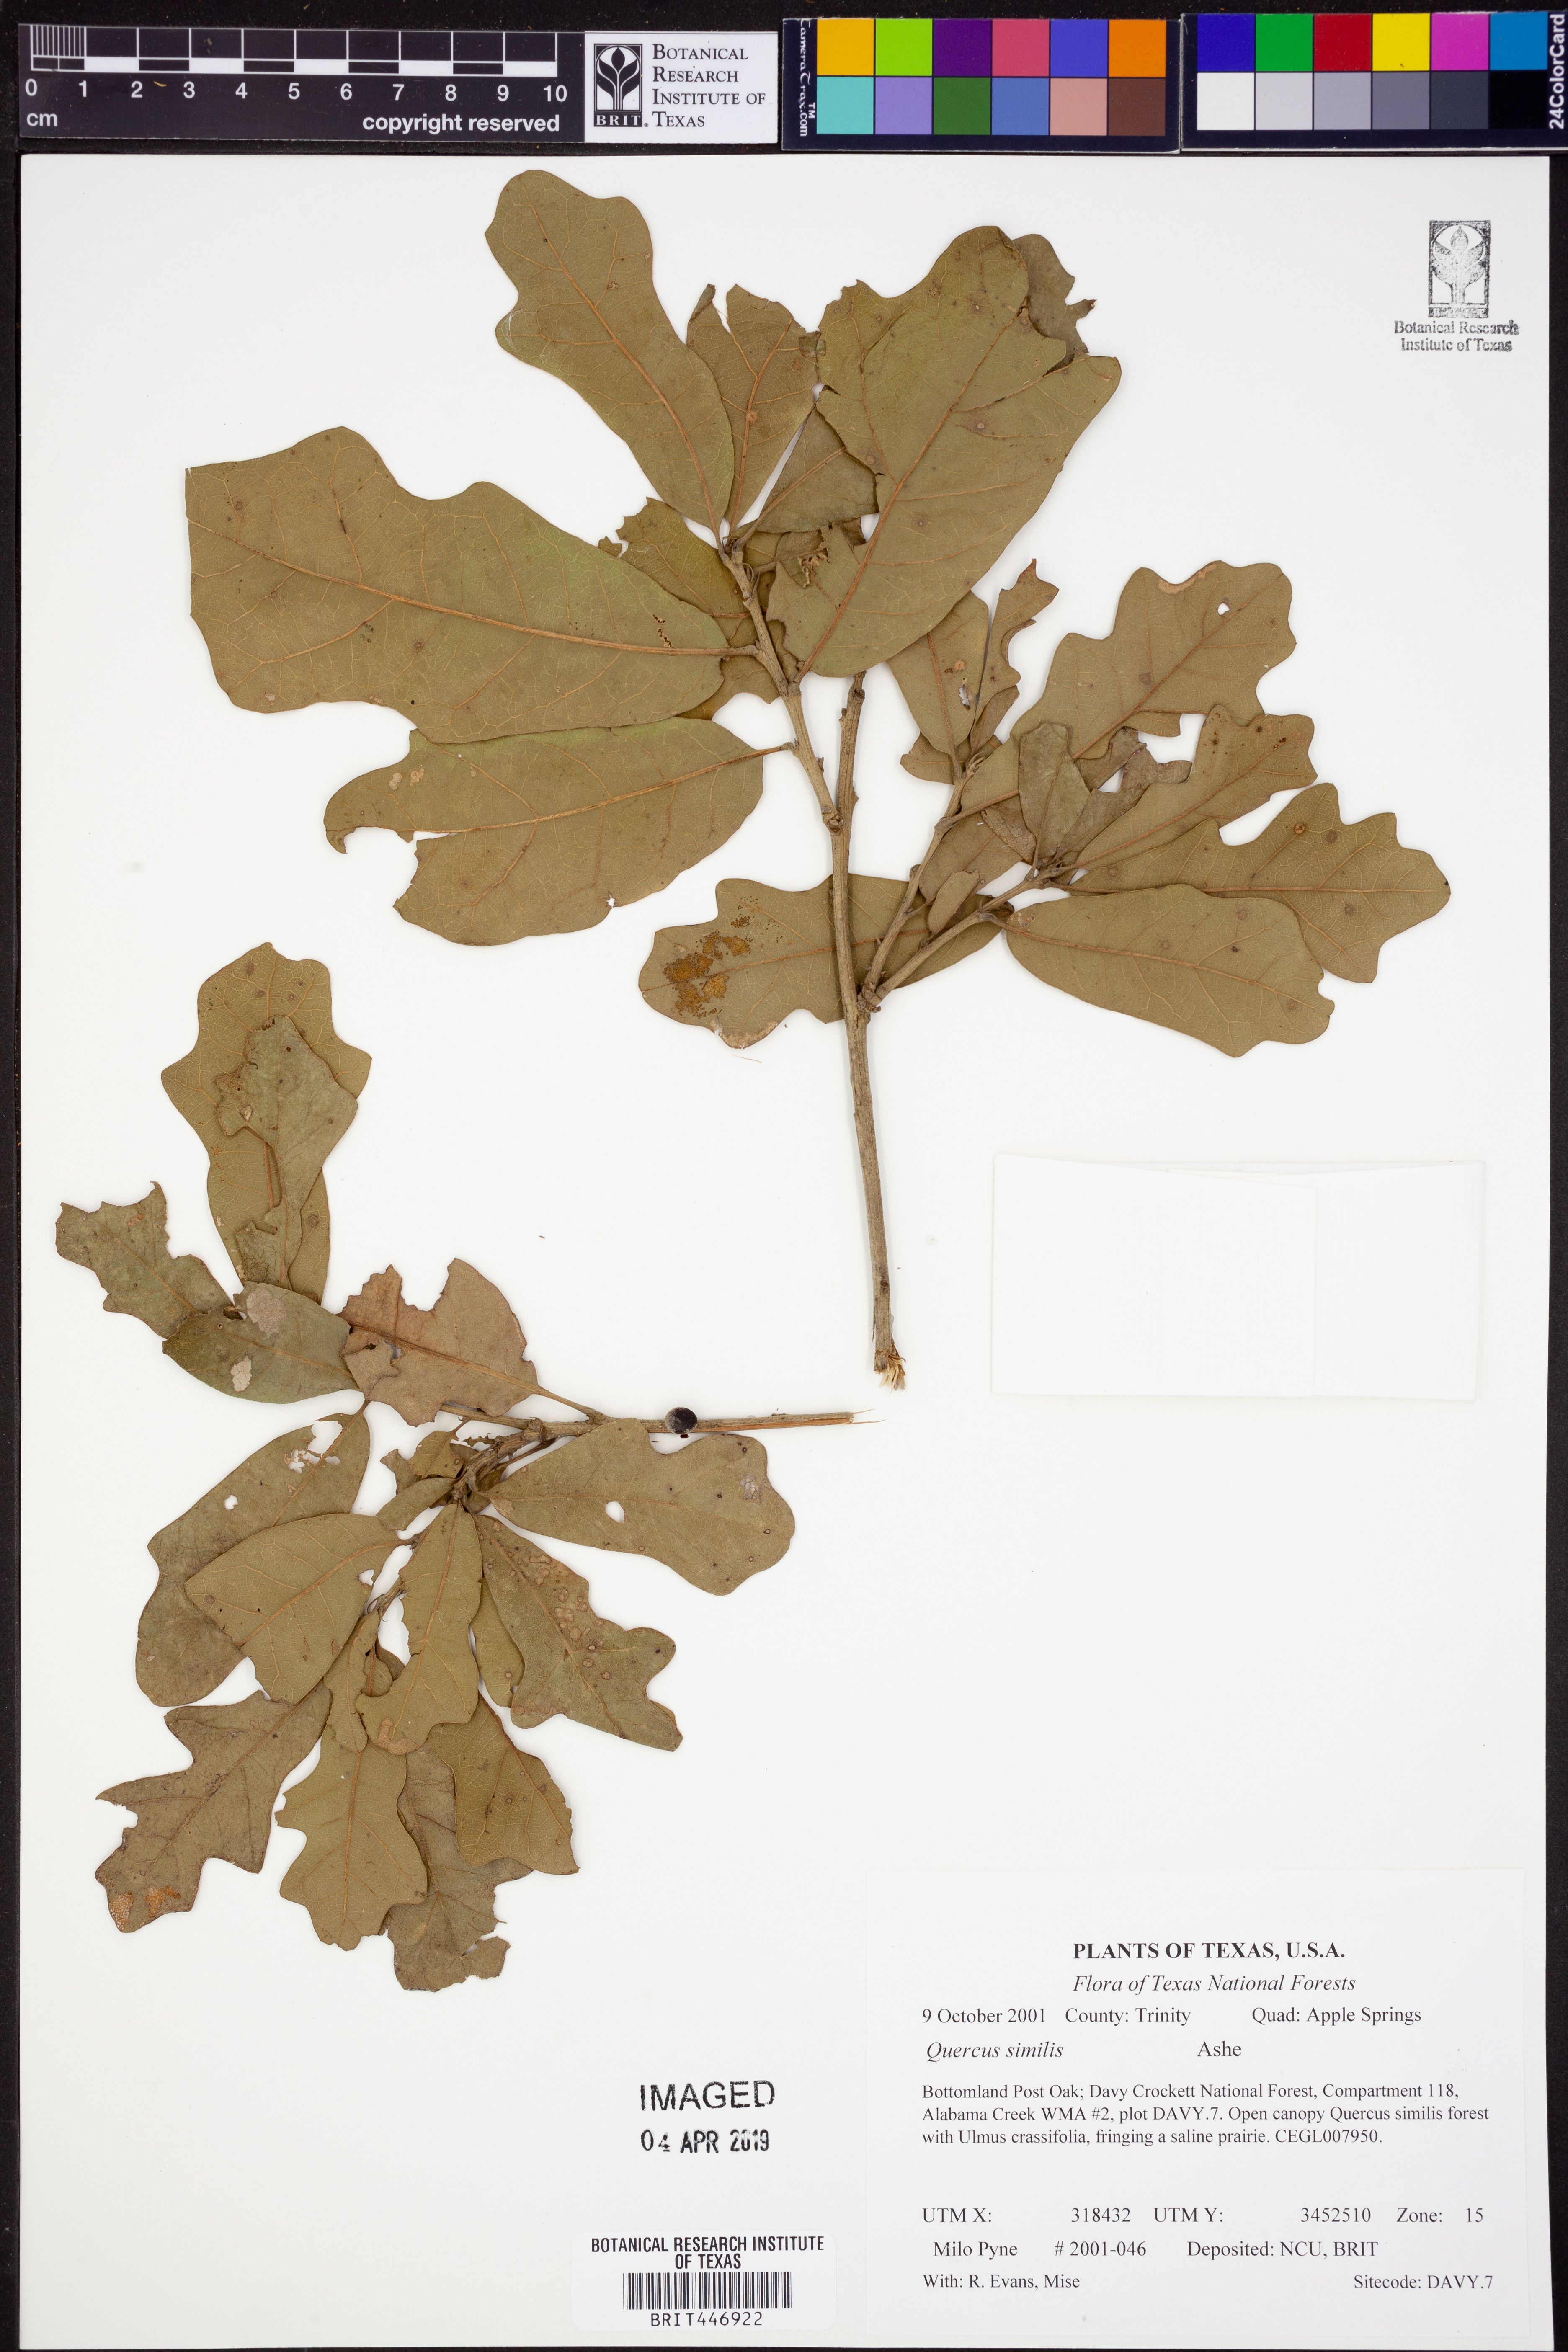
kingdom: Plantae
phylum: Tracheophyta
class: Magnoliopsida
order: Fagales
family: Fagaceae
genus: Quercus
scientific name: Quercus similis
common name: Delta post oak
